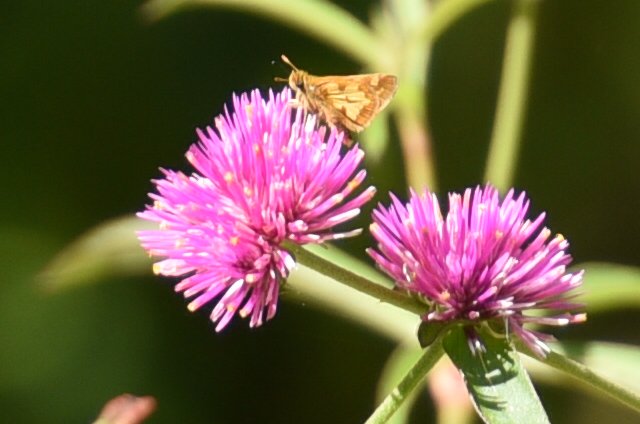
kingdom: Animalia
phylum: Arthropoda
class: Insecta
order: Lepidoptera
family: Hesperiidae
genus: Polites
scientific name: Polites coras
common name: Peck's Skipper
